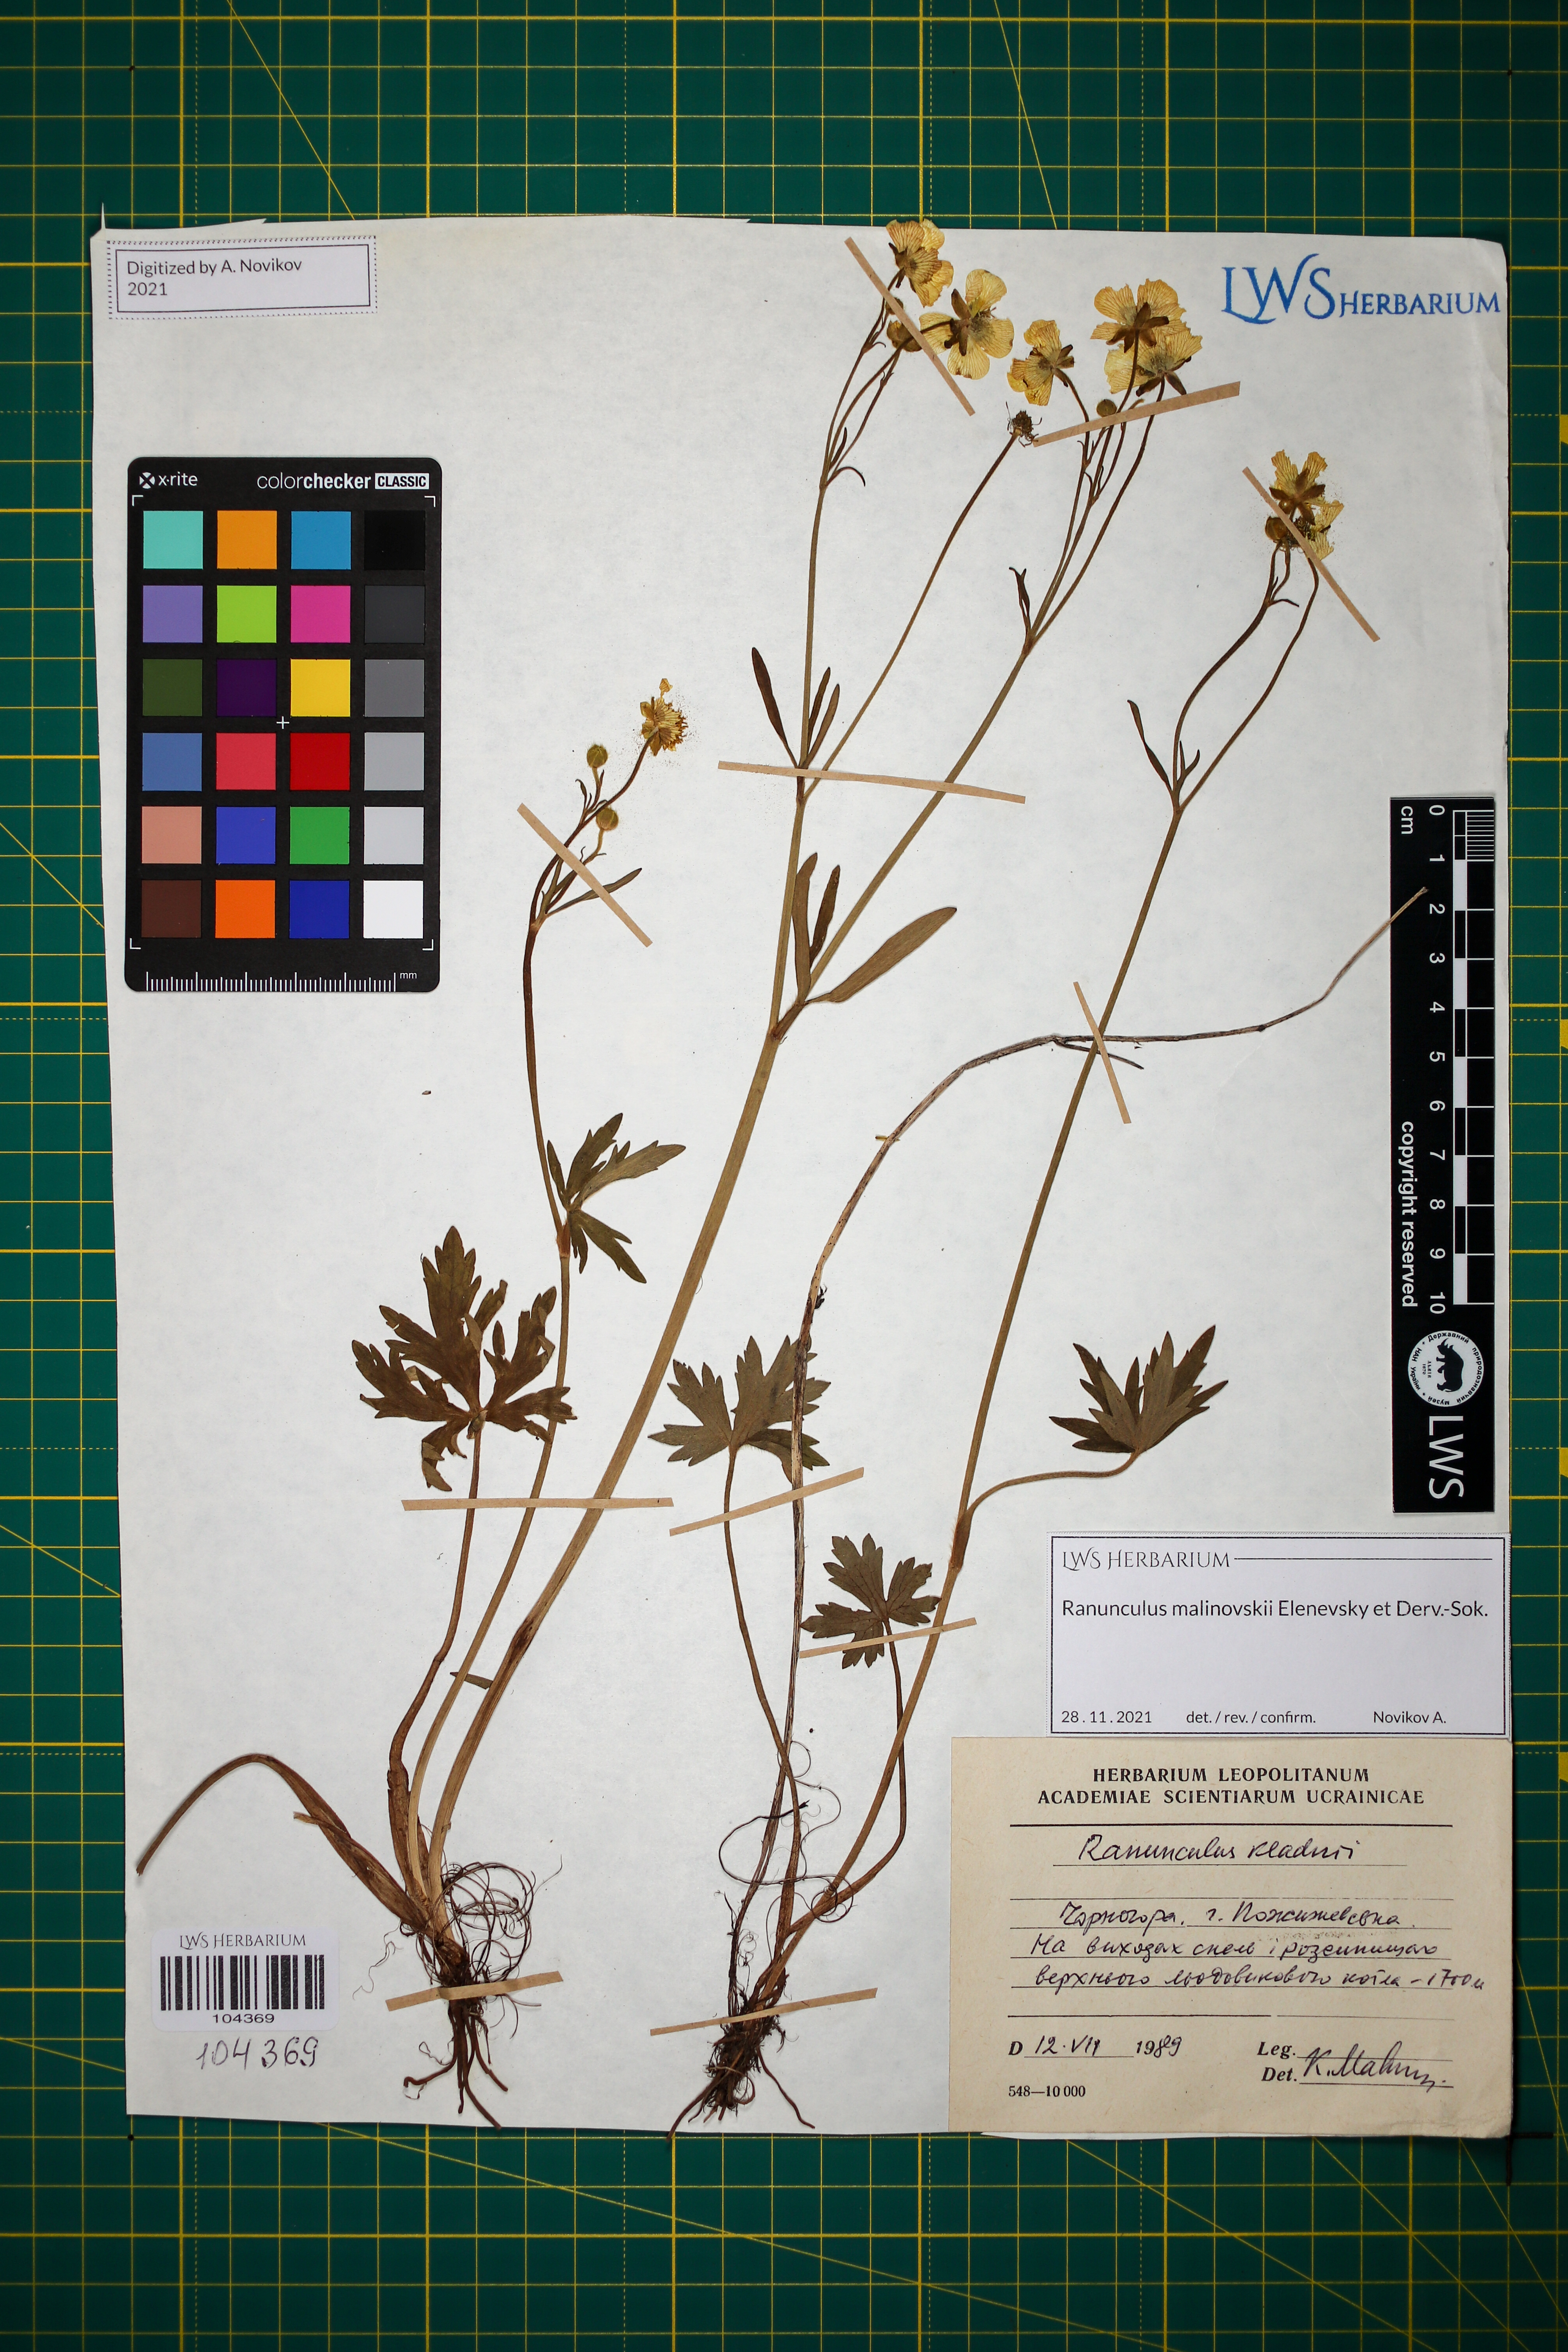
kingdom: Plantae
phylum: Tracheophyta
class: Magnoliopsida
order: Ranunculales
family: Ranunculaceae
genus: Ranunculus
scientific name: Ranunculus malinovskii
